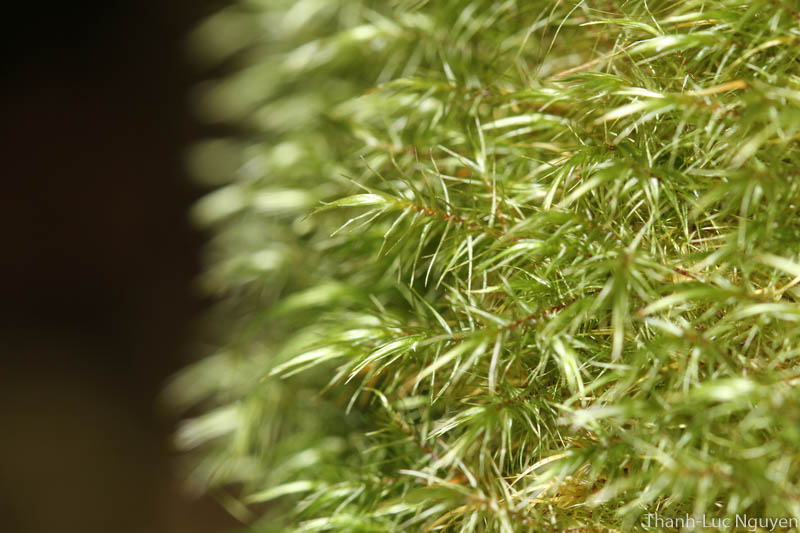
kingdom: Plantae
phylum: Bryophyta
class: Bryopsida
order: Hypnales
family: Sematophyllaceae
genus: Acroporium
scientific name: Acroporium
